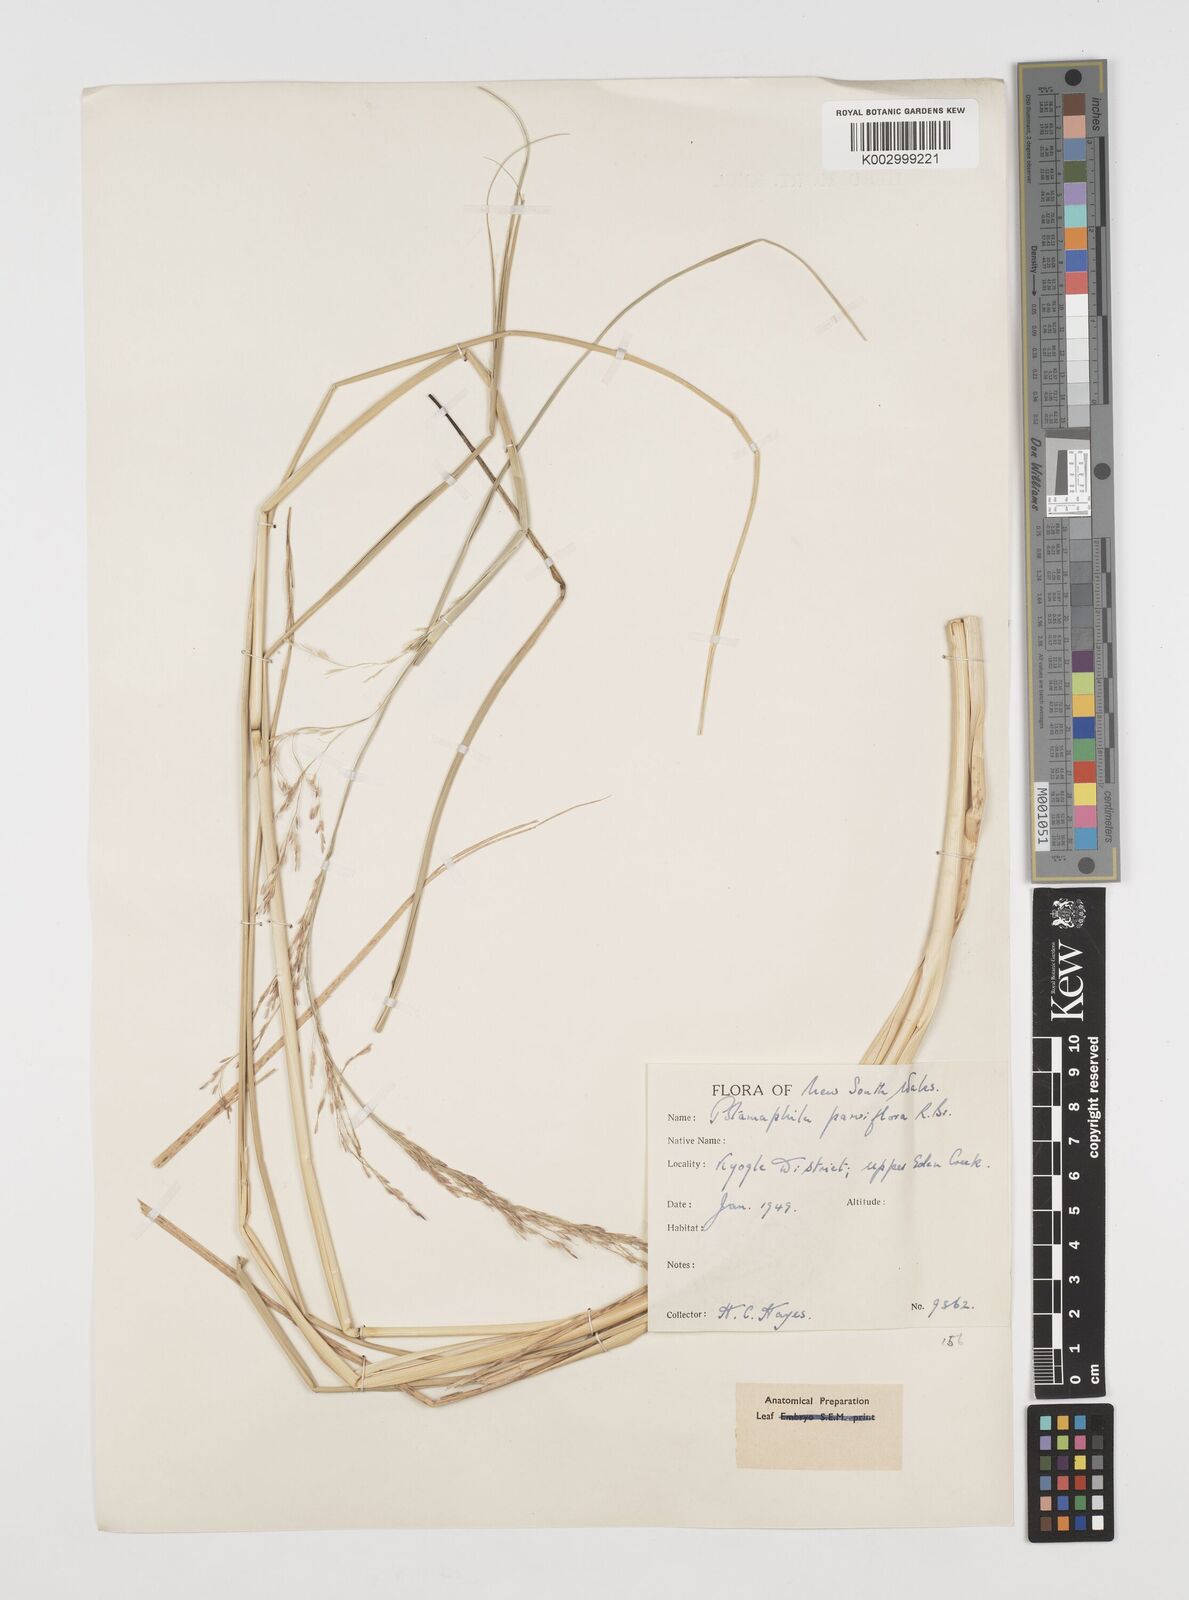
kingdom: Plantae
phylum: Tracheophyta
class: Magnoliopsida
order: Caryophyllales
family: Microteaceae
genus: Microtea
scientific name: Microtea maypurensis
